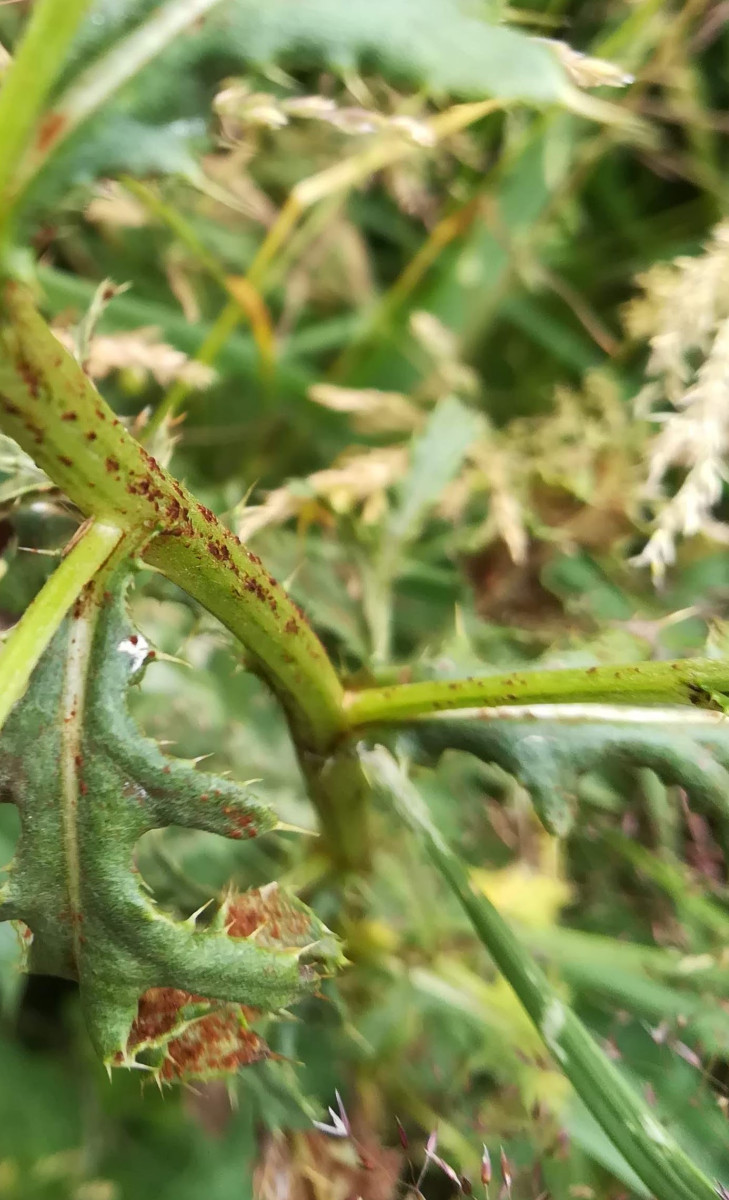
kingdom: Fungi
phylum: Basidiomycota
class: Pucciniomycetes
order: Pucciniales
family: Pucciniaceae
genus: Puccinia
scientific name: Puccinia suaveolens
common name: tidsel-tvecellerust
